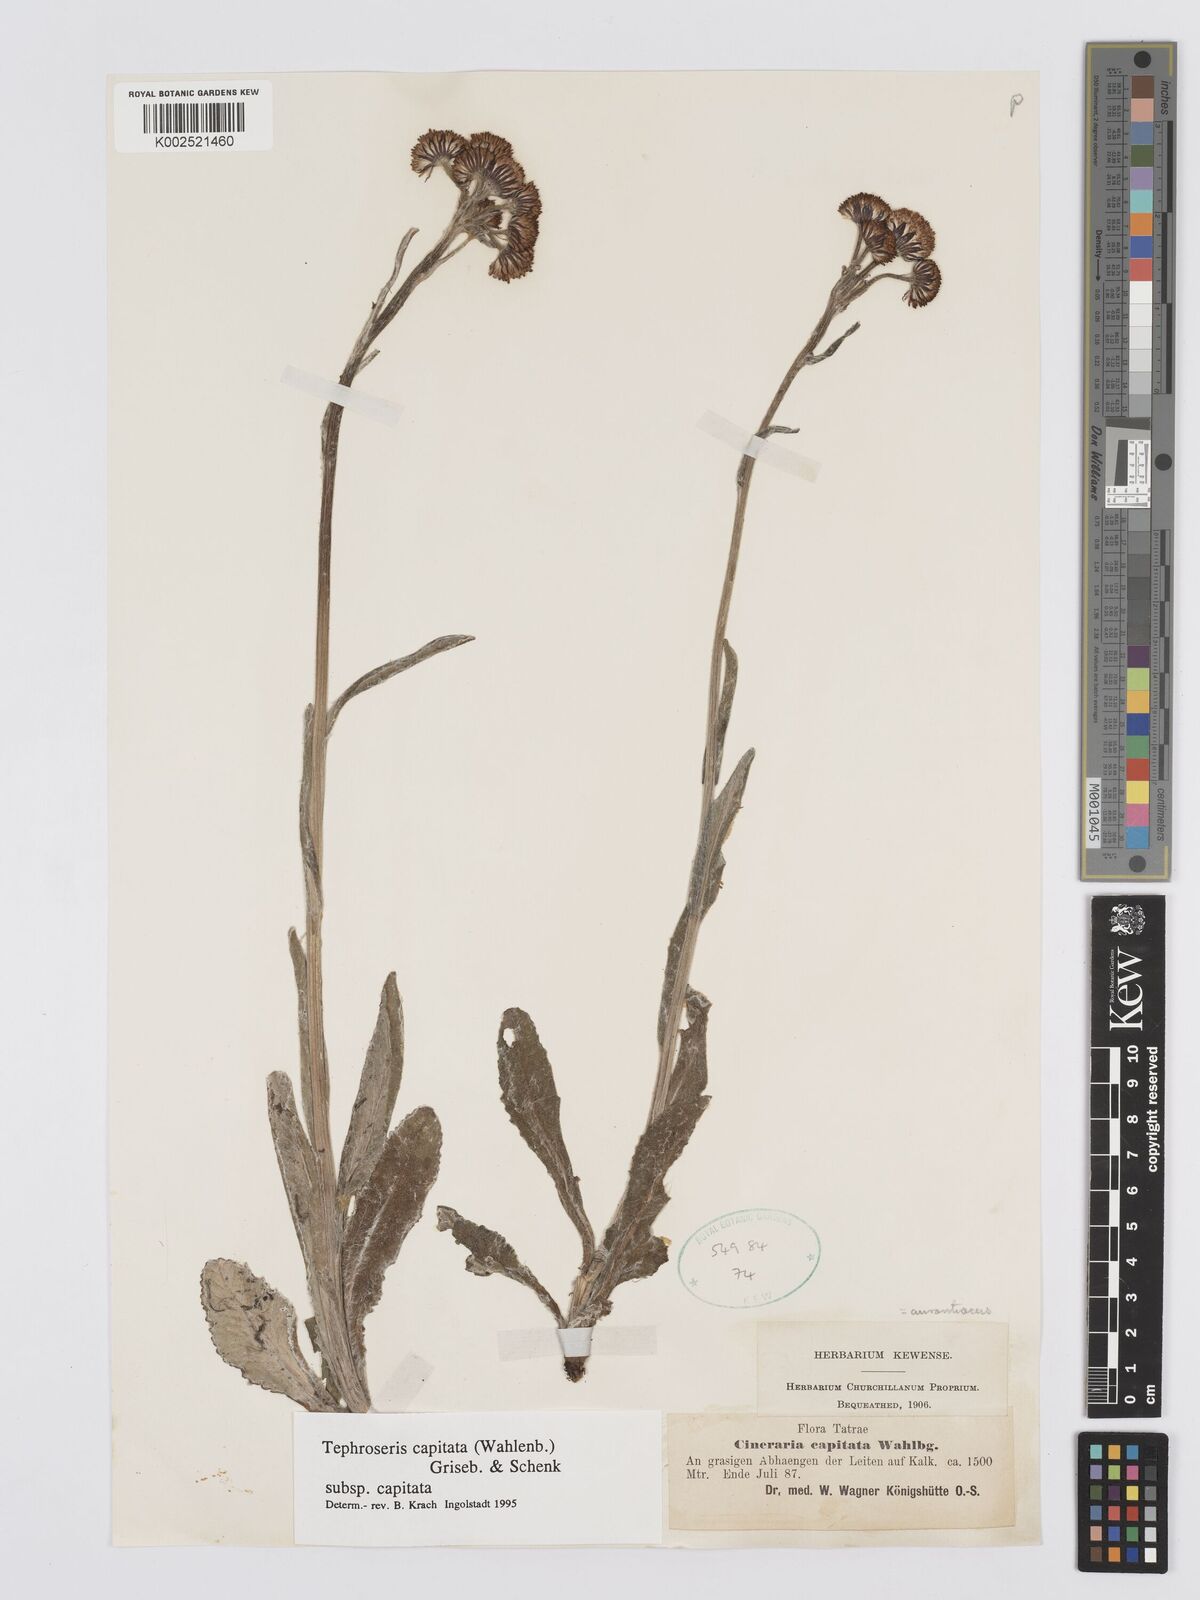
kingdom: Plantae
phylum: Tracheophyta
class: Magnoliopsida
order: Asterales
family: Asteraceae
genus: Tephroseris
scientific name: Tephroseris integrifolia
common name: Field fleawort
